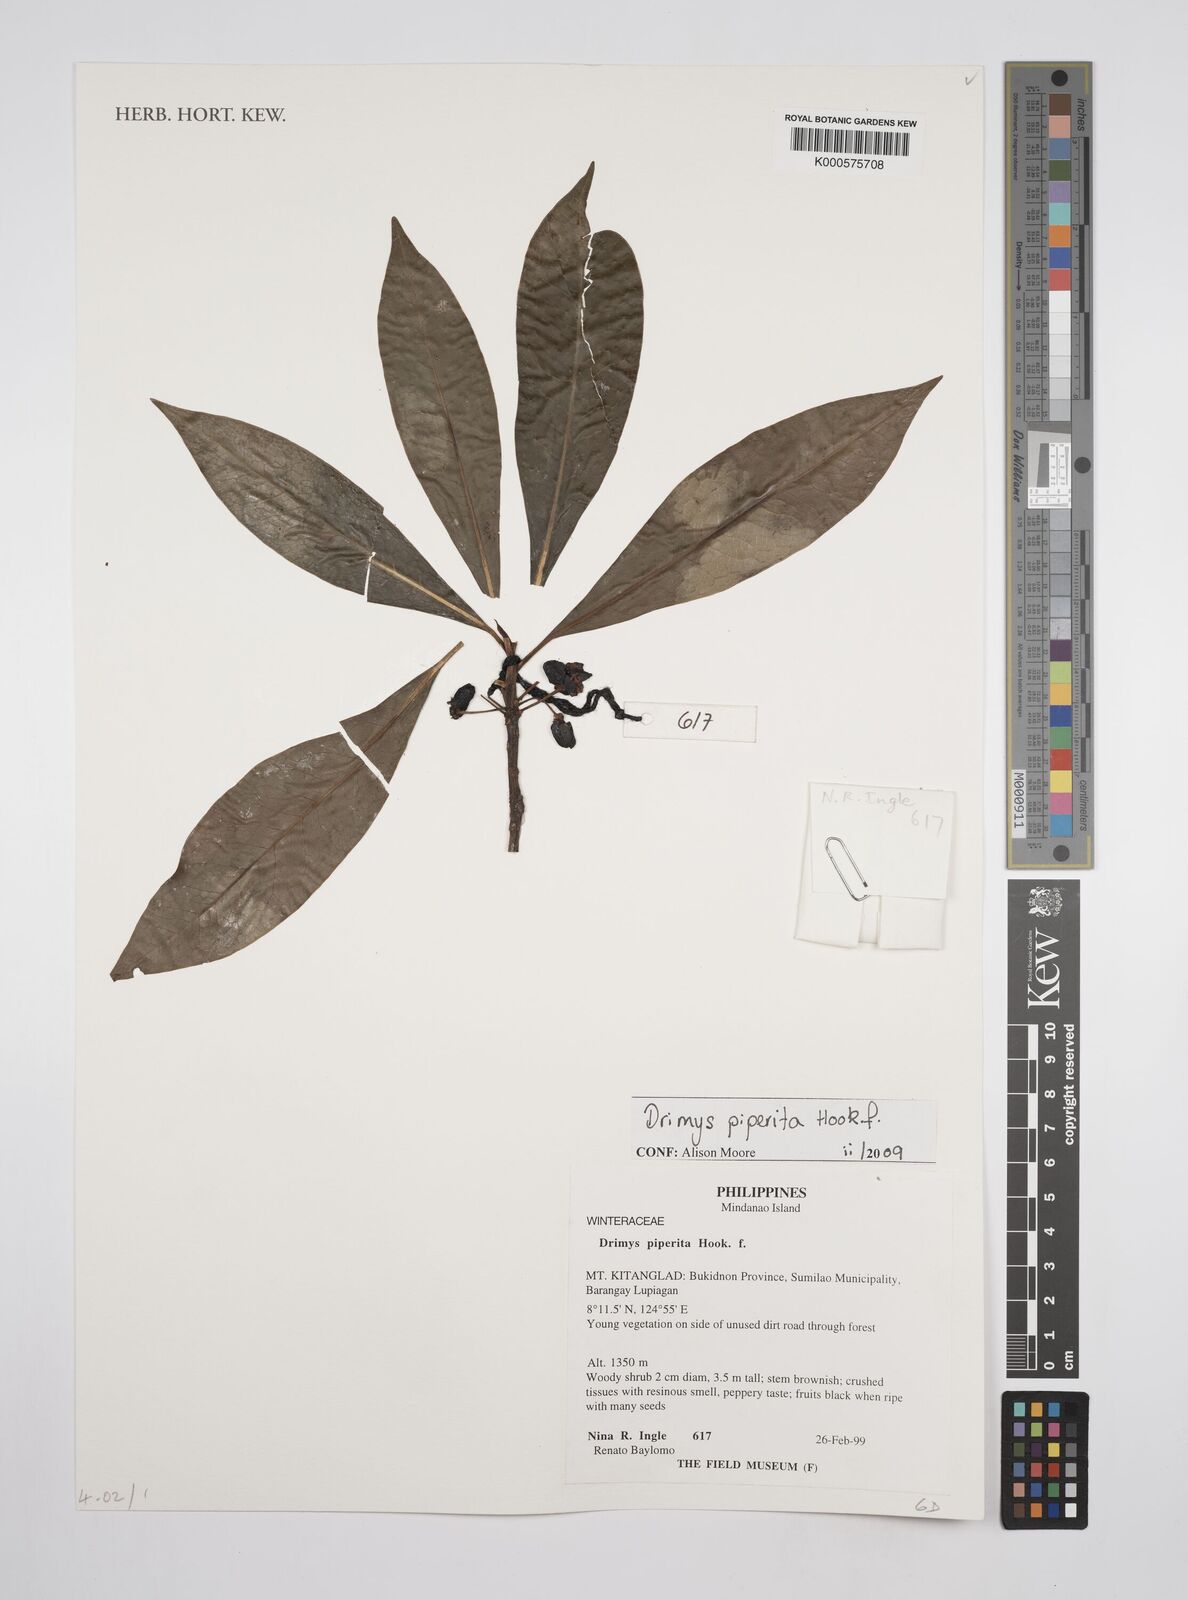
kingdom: Plantae
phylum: Tracheophyta
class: Magnoliopsida
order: Canellales
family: Winteraceae
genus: Drimys
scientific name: Drimys piperita
